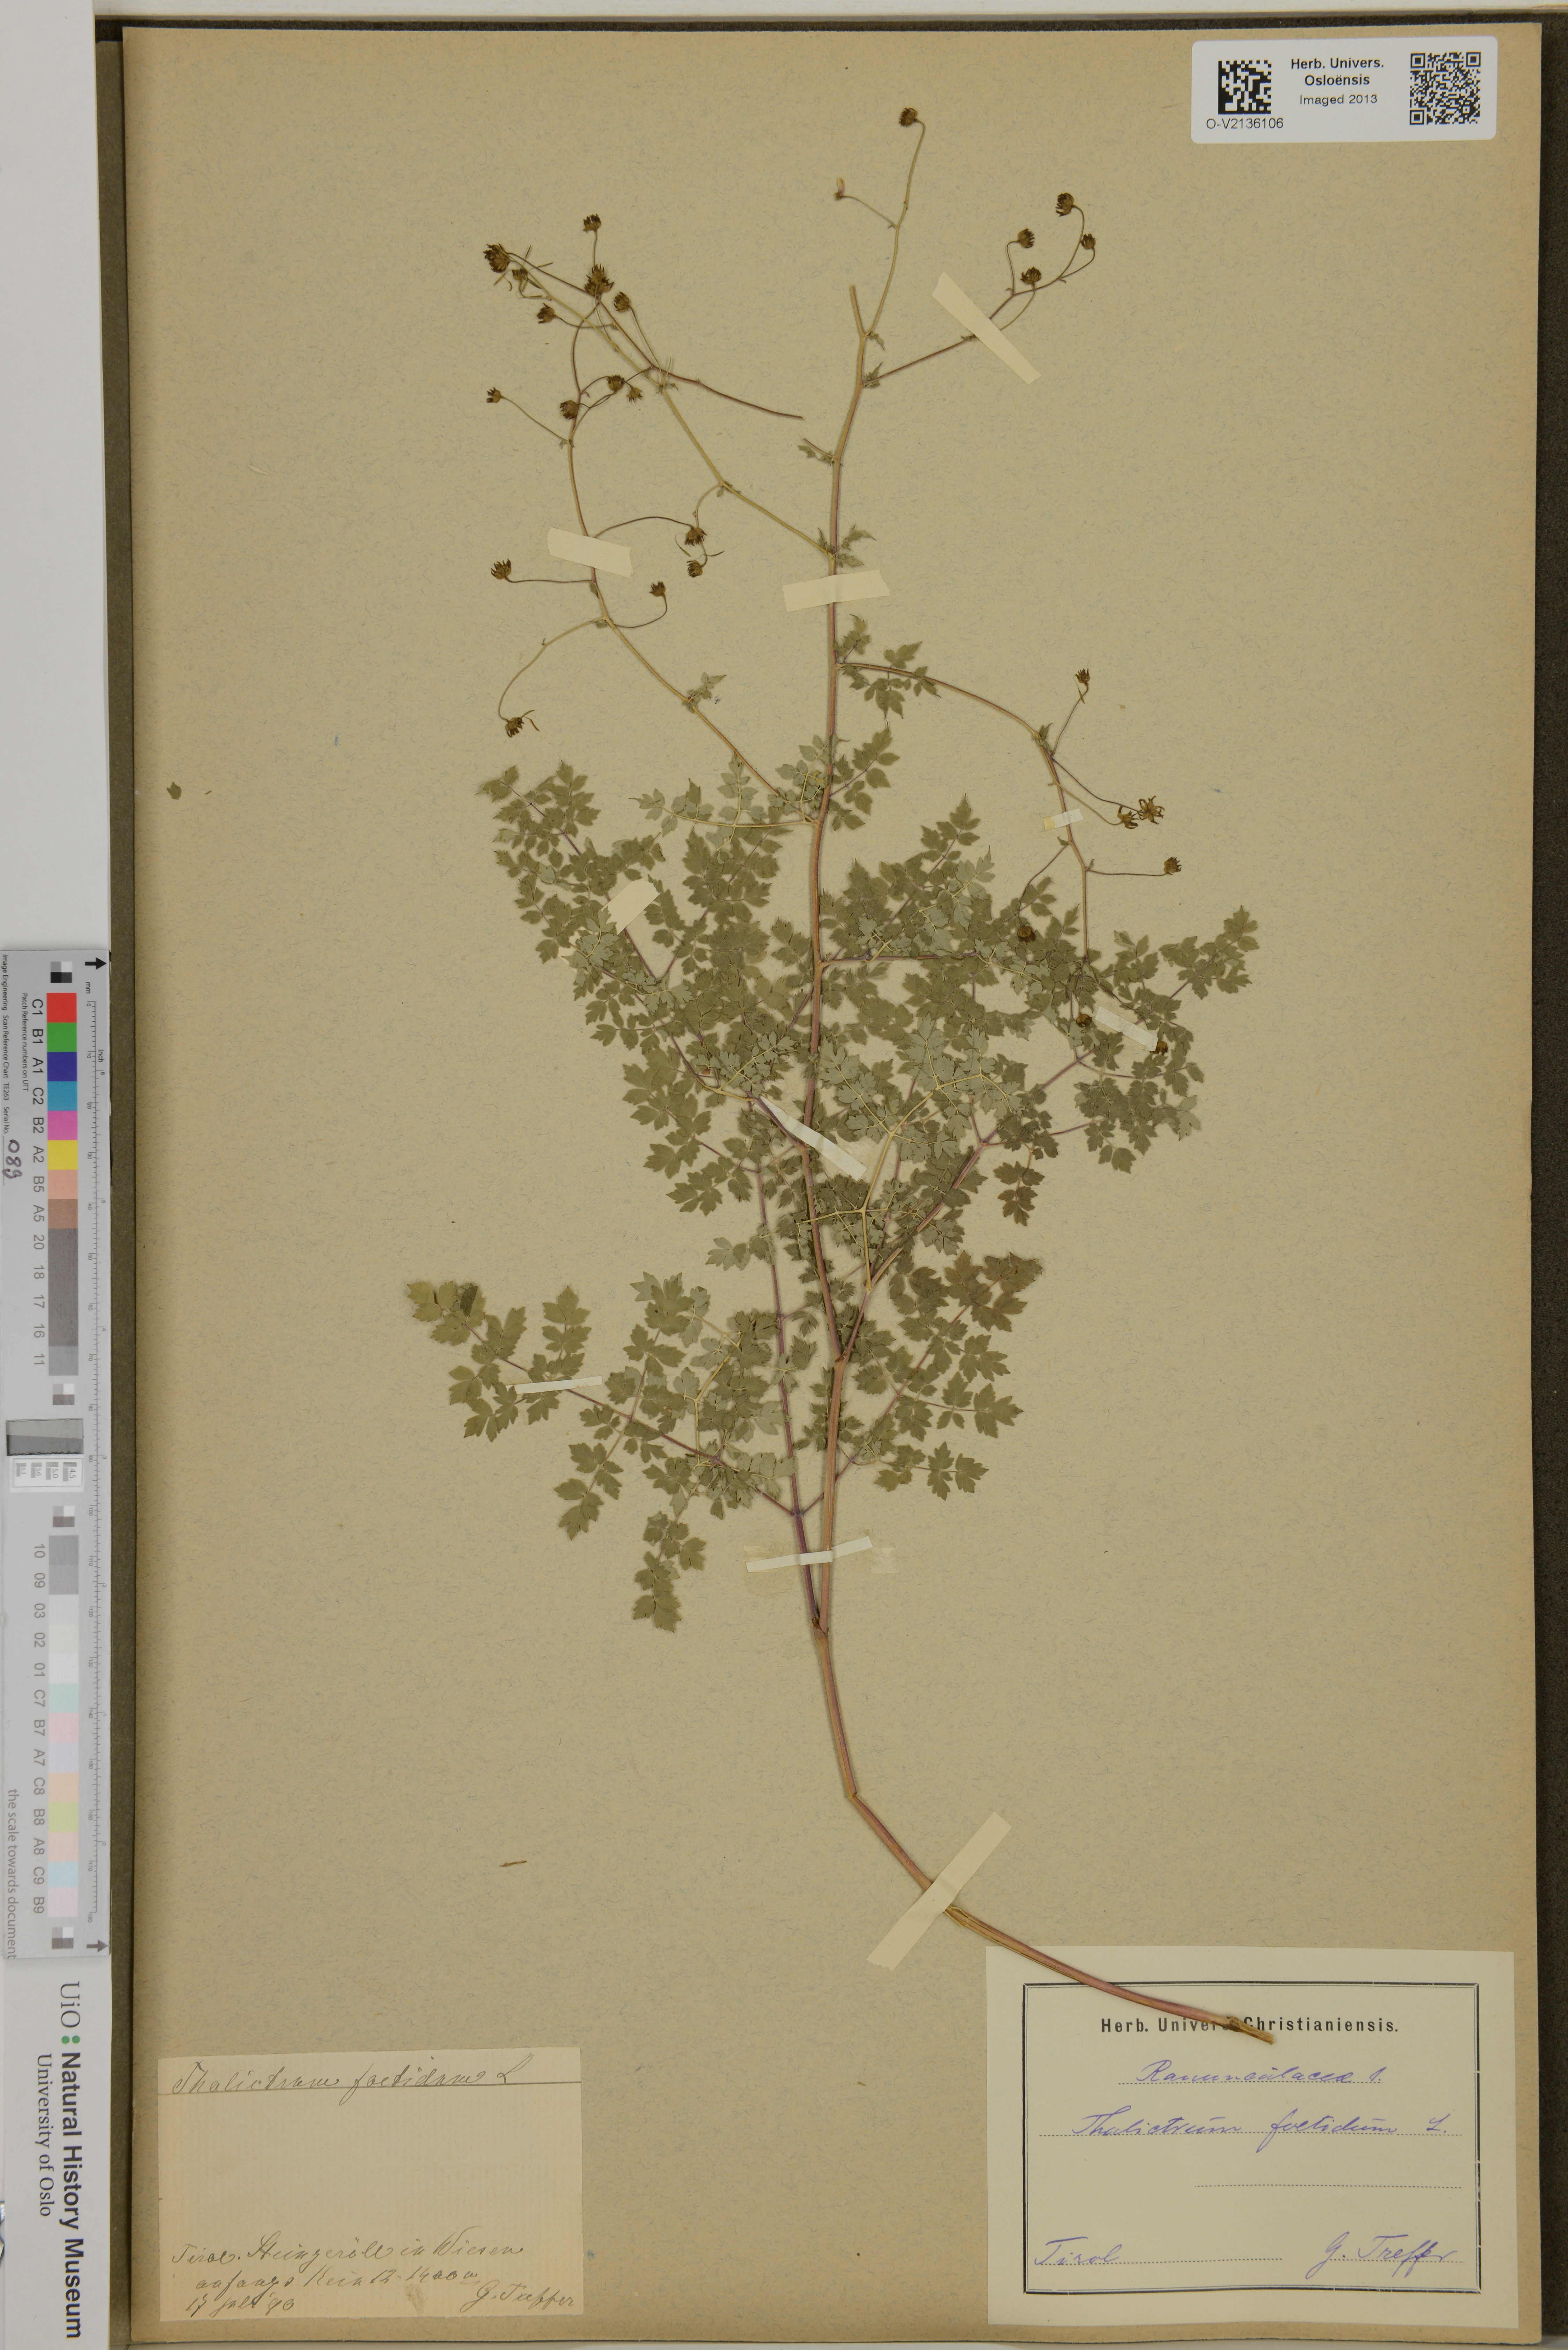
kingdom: Plantae
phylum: Tracheophyta
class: Magnoliopsida
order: Ranunculales
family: Ranunculaceae
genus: Thalictrum
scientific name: Thalictrum foetidum
